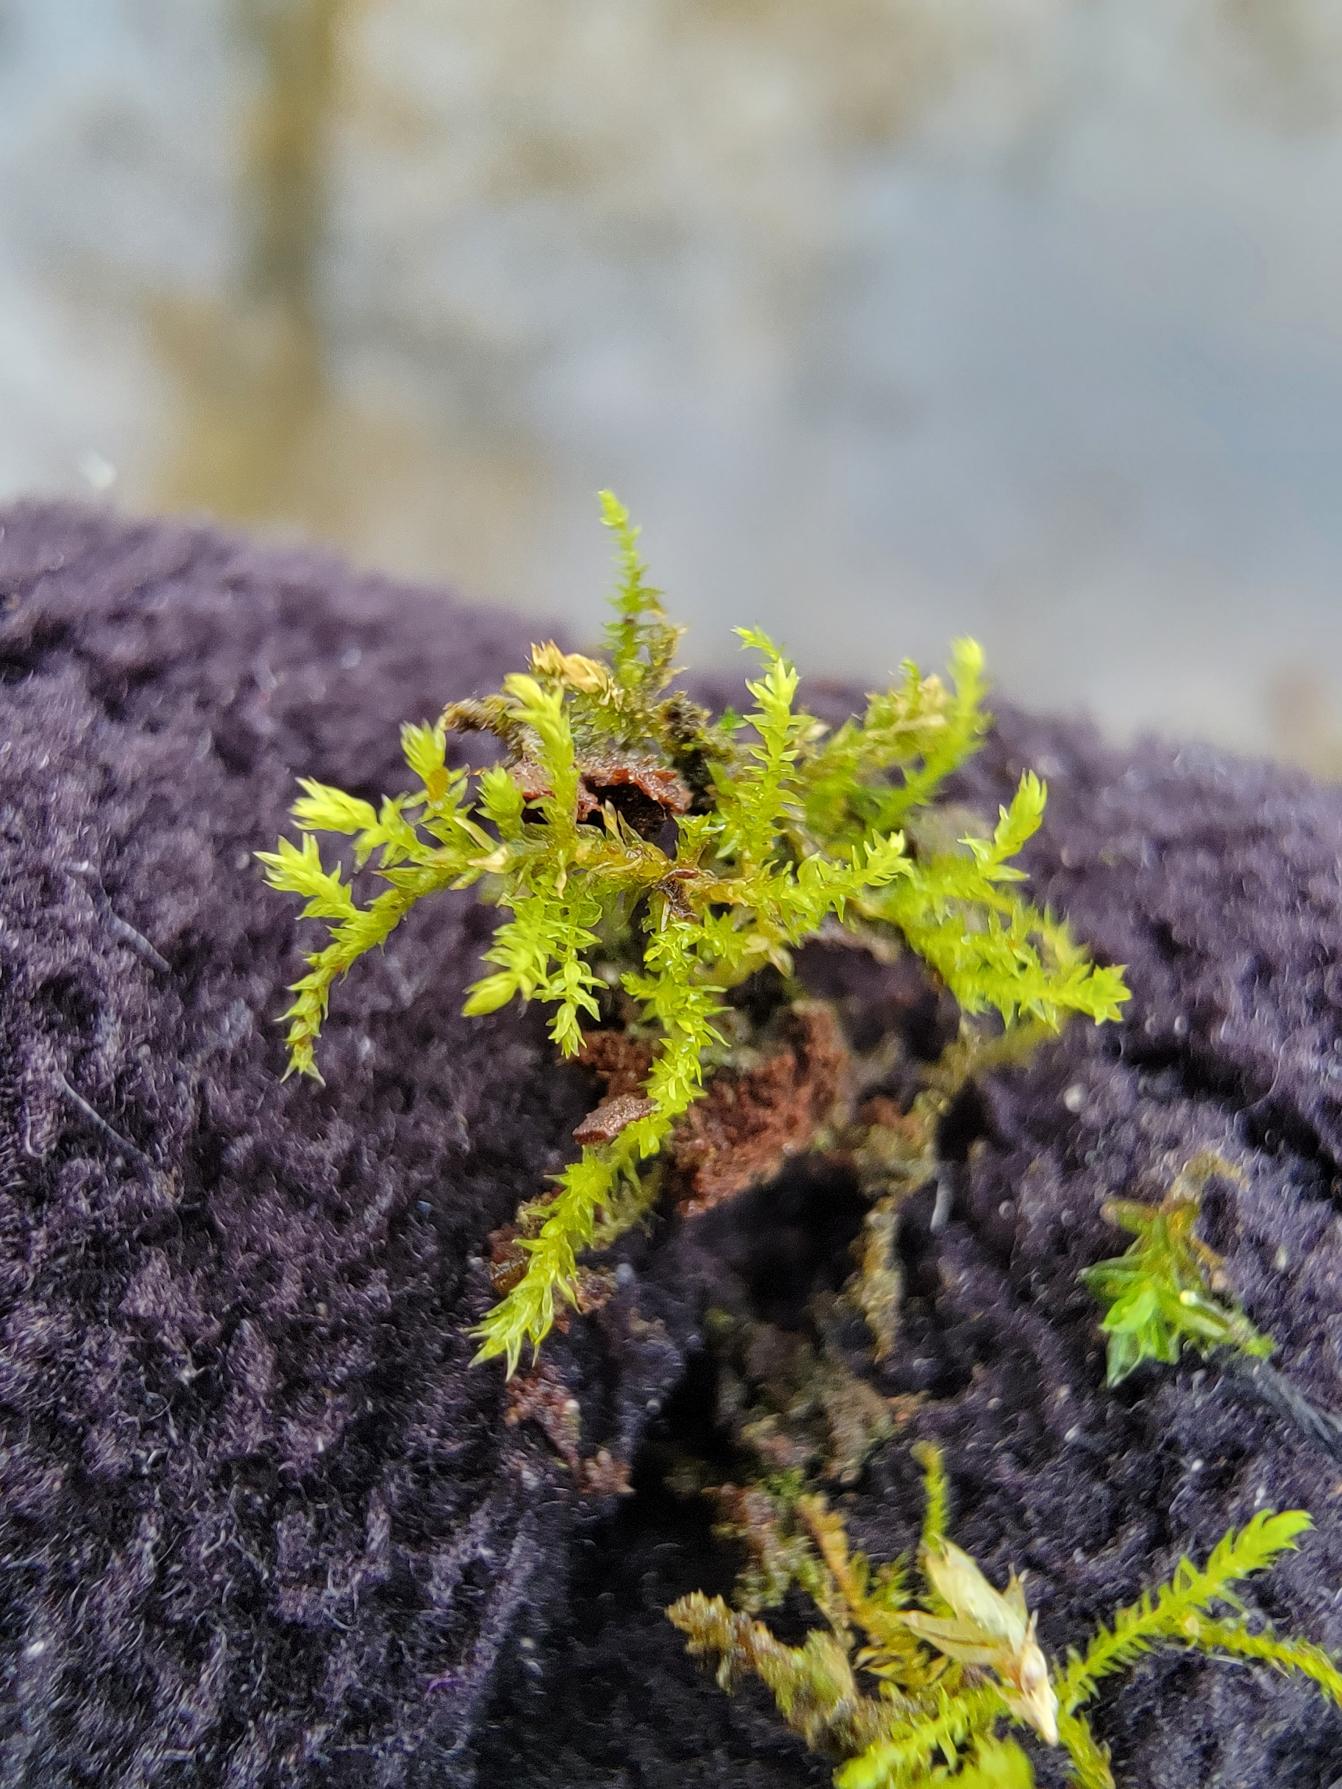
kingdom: Plantae
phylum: Bryophyta
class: Bryopsida
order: Hypnales
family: Leskeaceae
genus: Leskea
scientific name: Leskea polycarpa
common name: Mat lærkemos
